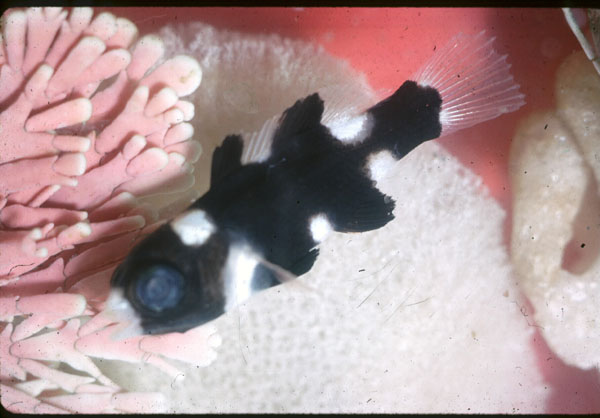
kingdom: Animalia
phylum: Chordata
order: Perciformes
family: Labridae
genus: Bodianus
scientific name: Bodianus axillaris
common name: Axilspot hogfish
